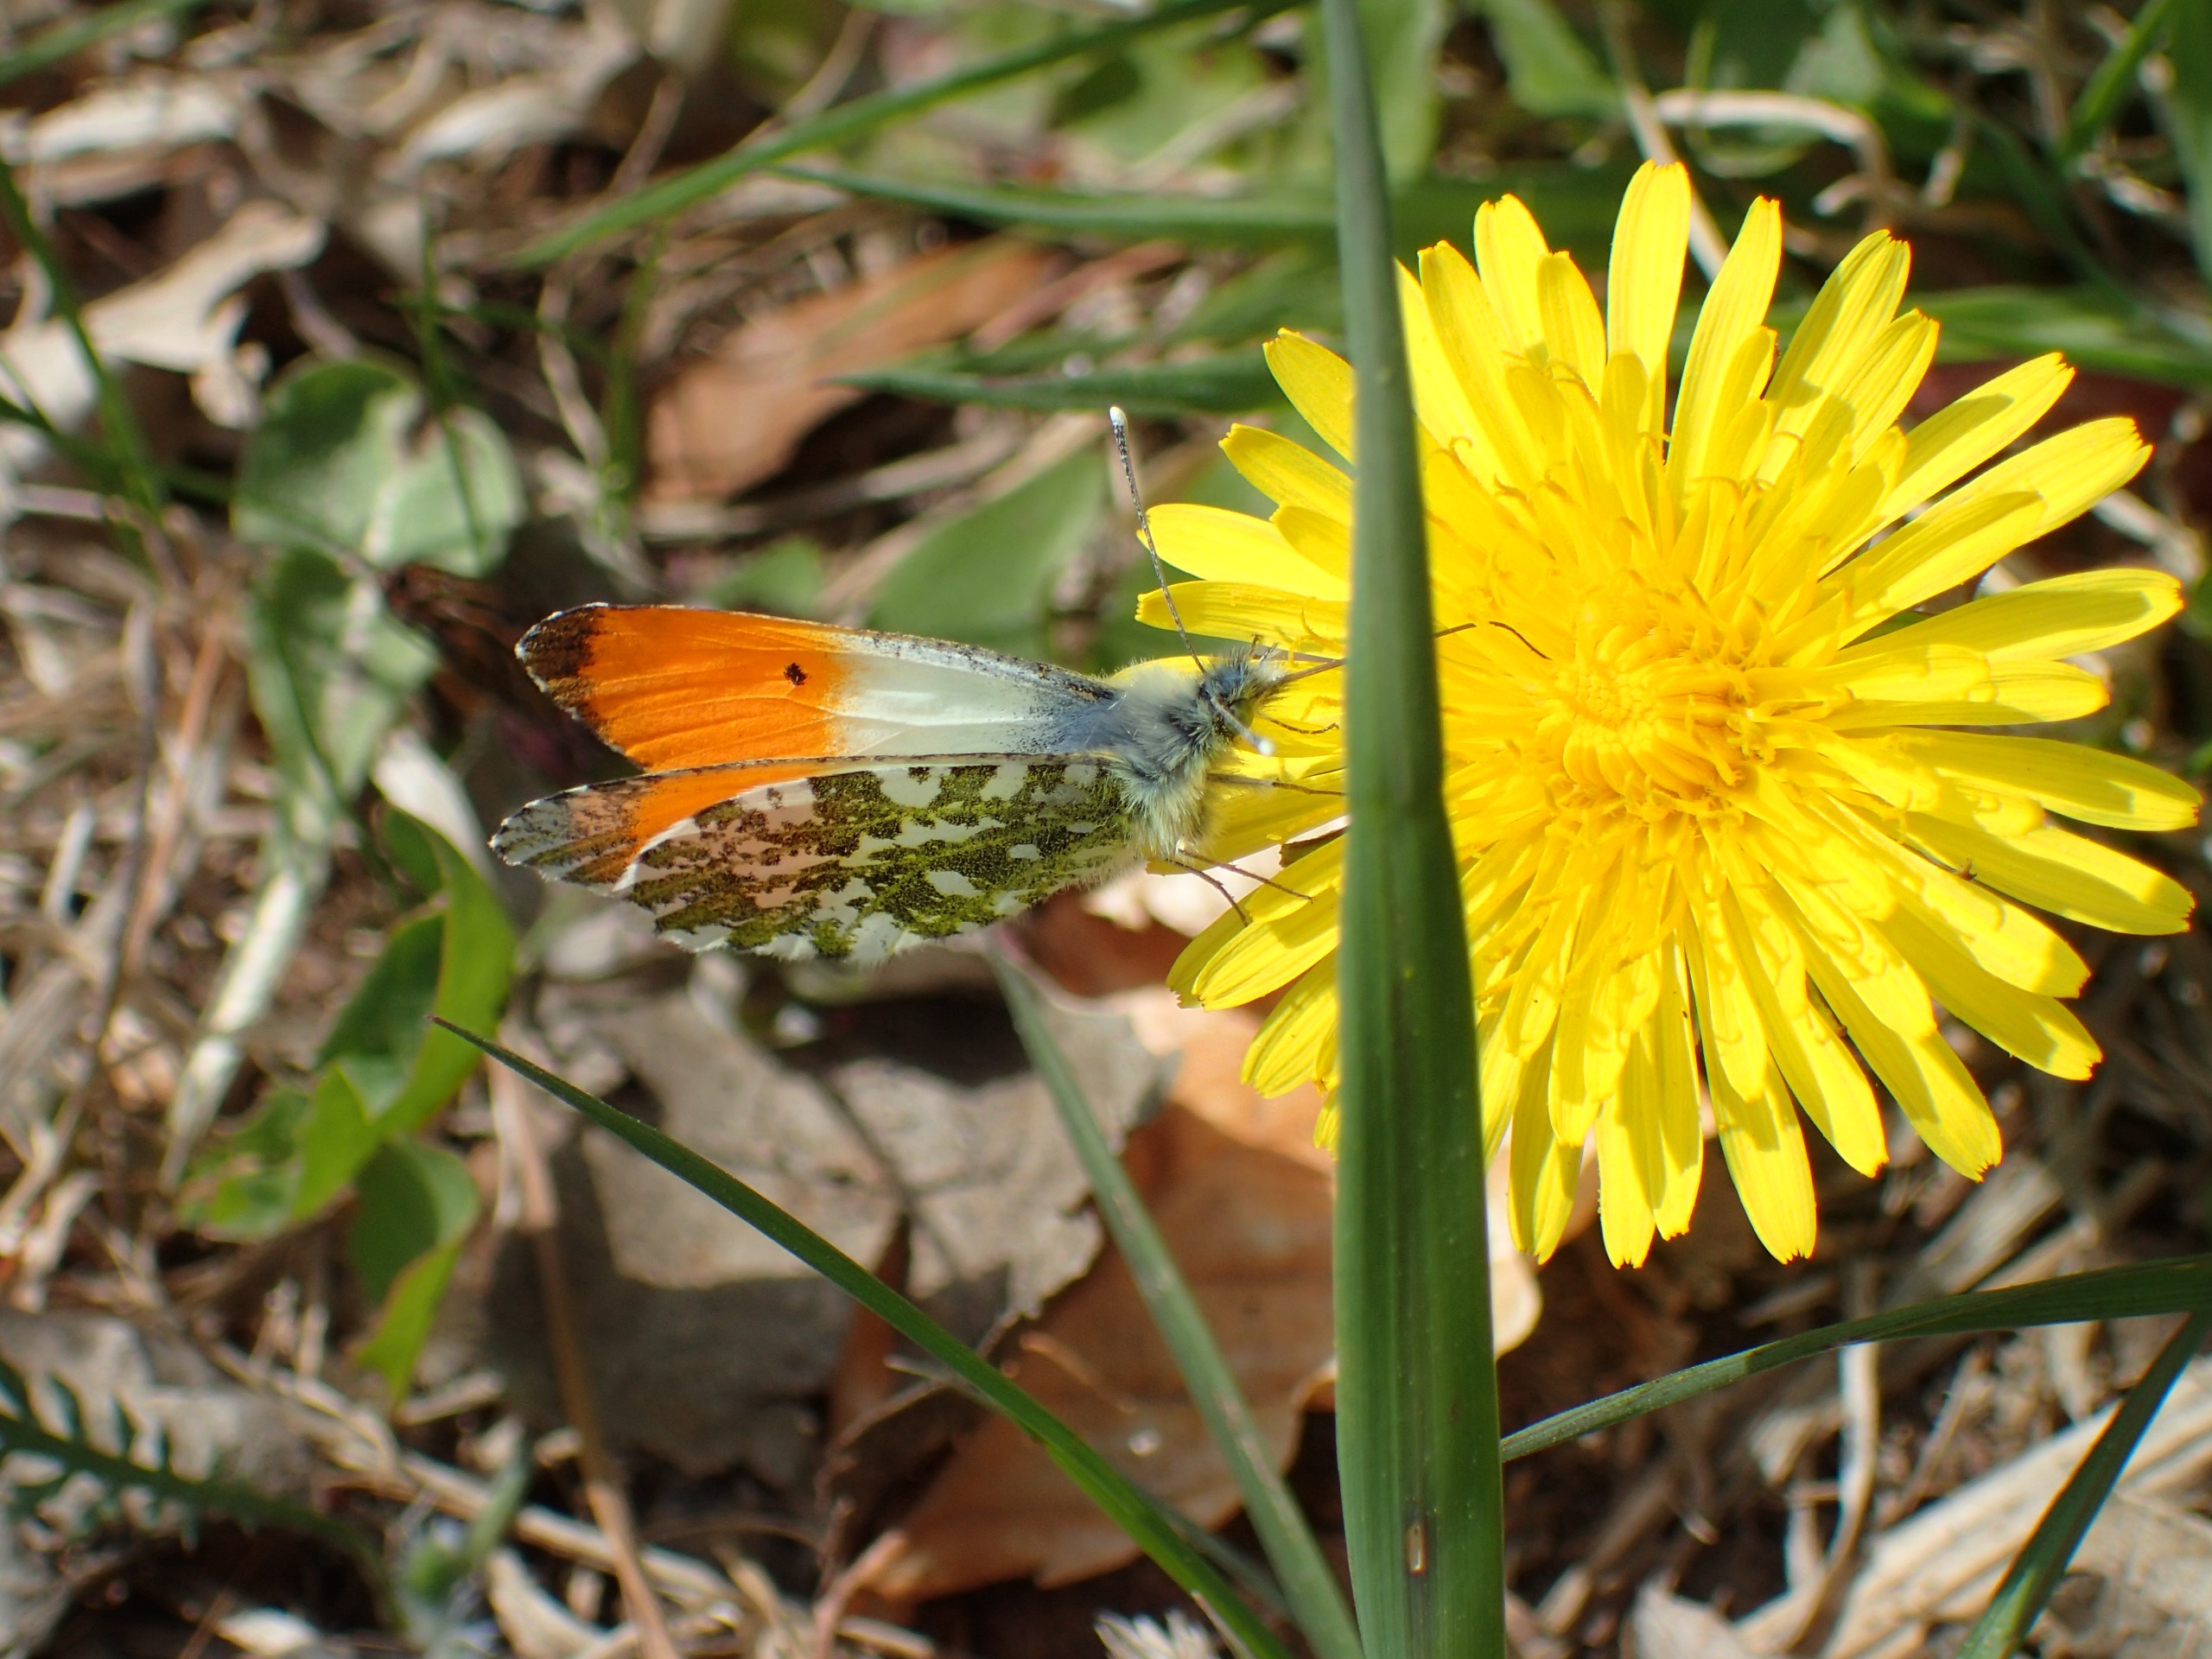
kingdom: Animalia
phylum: Arthropoda
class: Insecta
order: Lepidoptera
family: Pieridae
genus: Anthocharis
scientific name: Anthocharis cardamines
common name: Aurora
